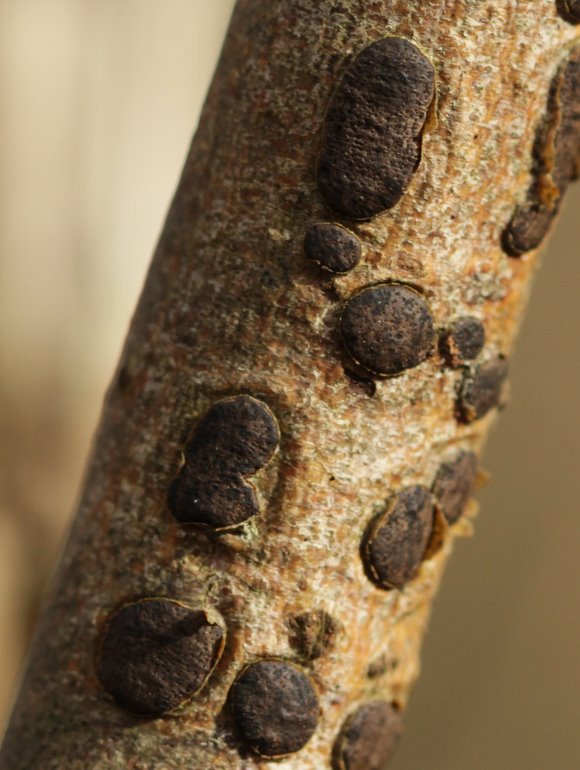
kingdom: Fungi
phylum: Ascomycota
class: Sordariomycetes
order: Xylariales
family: Diatrypaceae
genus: Diatrype
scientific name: Diatrype bullata
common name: pile-kulskorpe
